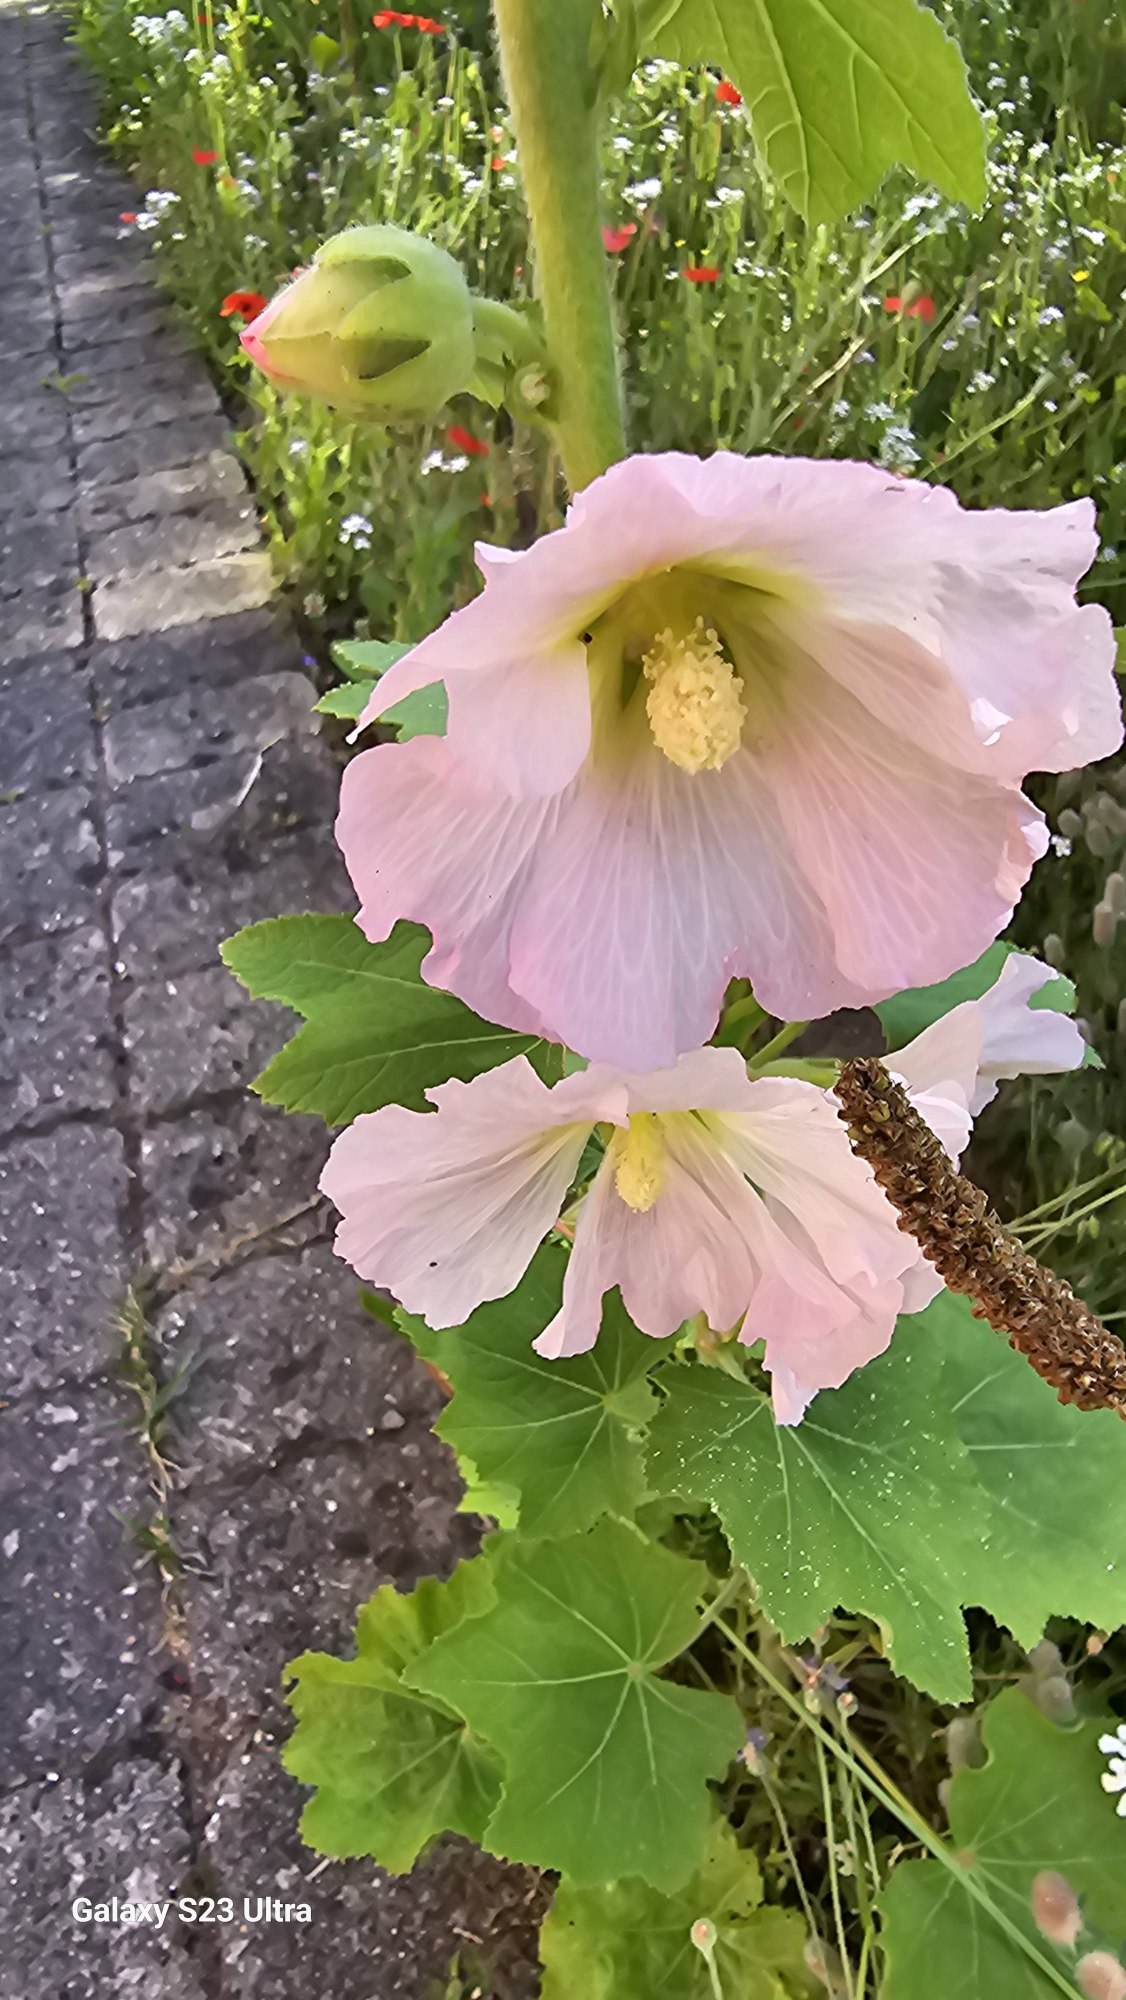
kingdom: Plantae
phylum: Tracheophyta
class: Magnoliopsida
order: Malvales
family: Malvaceae
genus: Alcea
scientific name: Alcea rosea
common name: Have-stokrose
